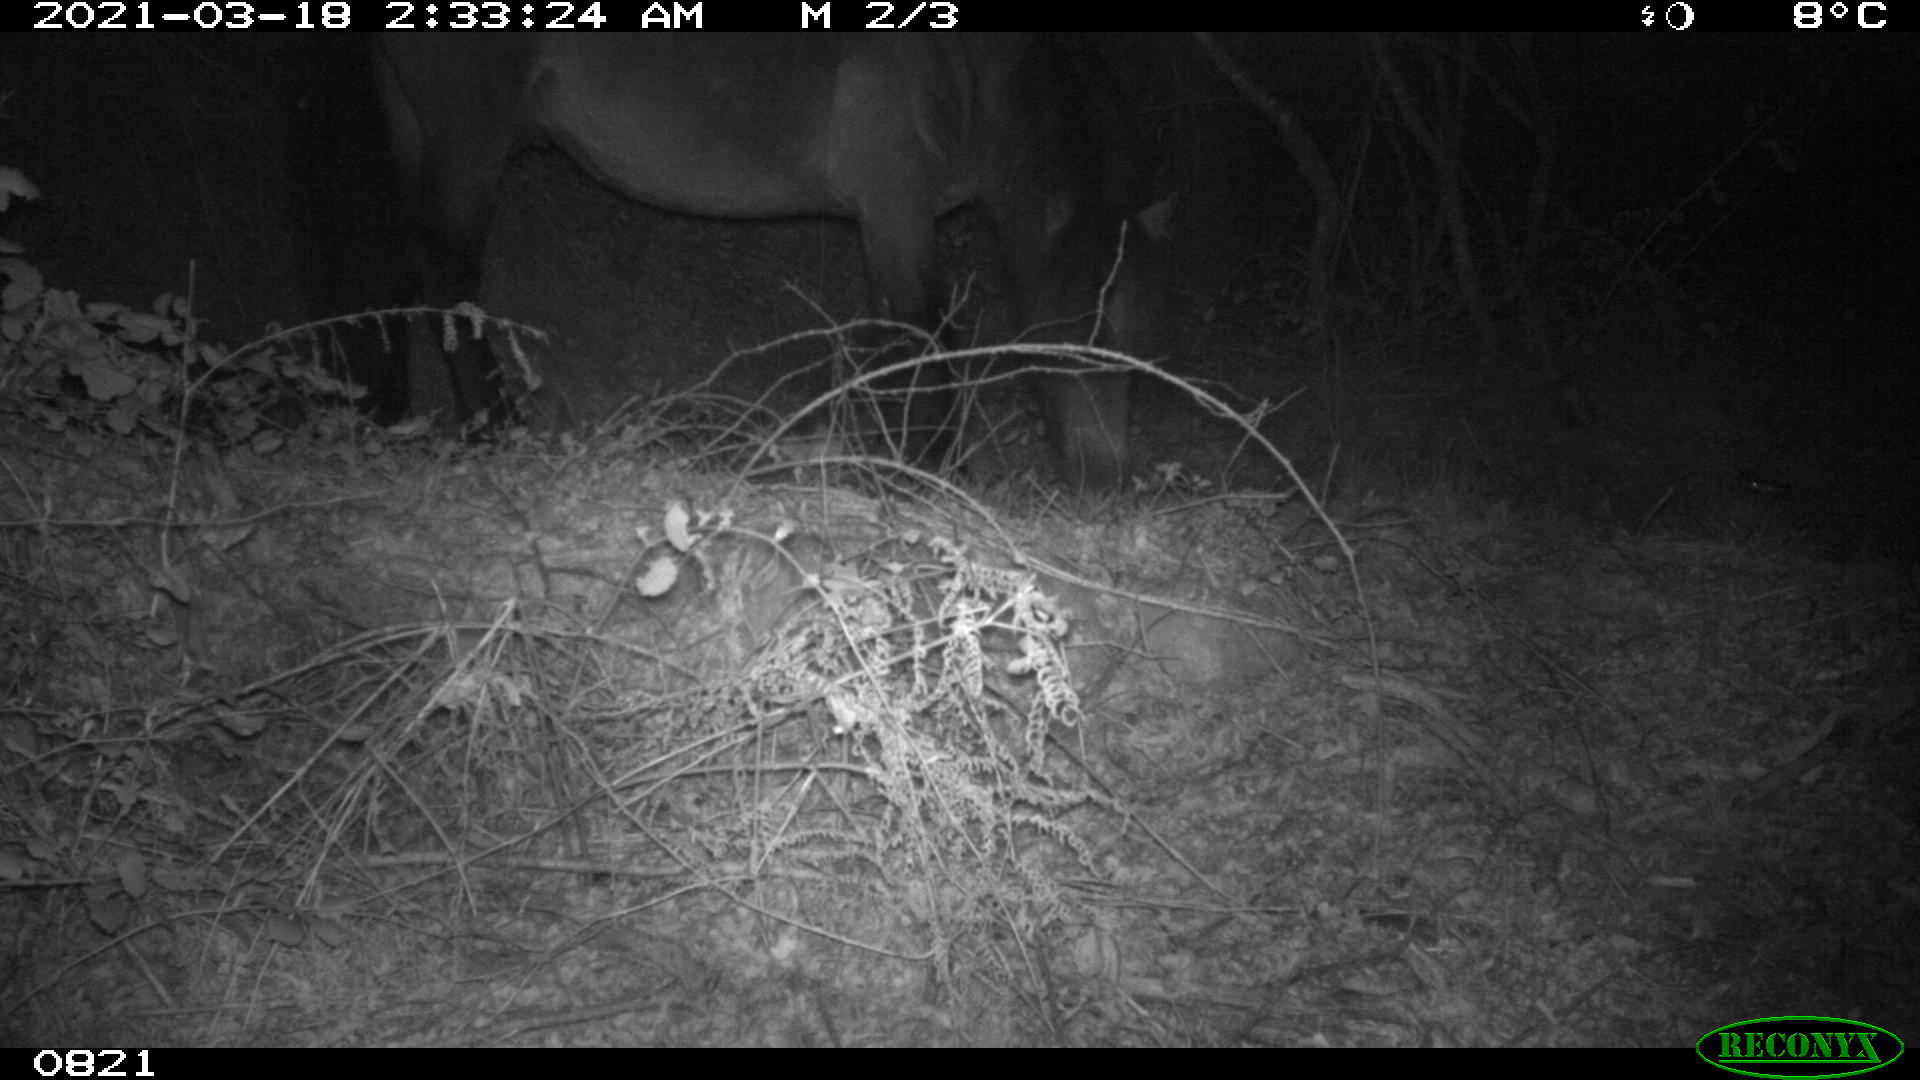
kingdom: Animalia
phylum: Chordata
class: Mammalia
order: Perissodactyla
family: Equidae
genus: Equus
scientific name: Equus caballus
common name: Horse
